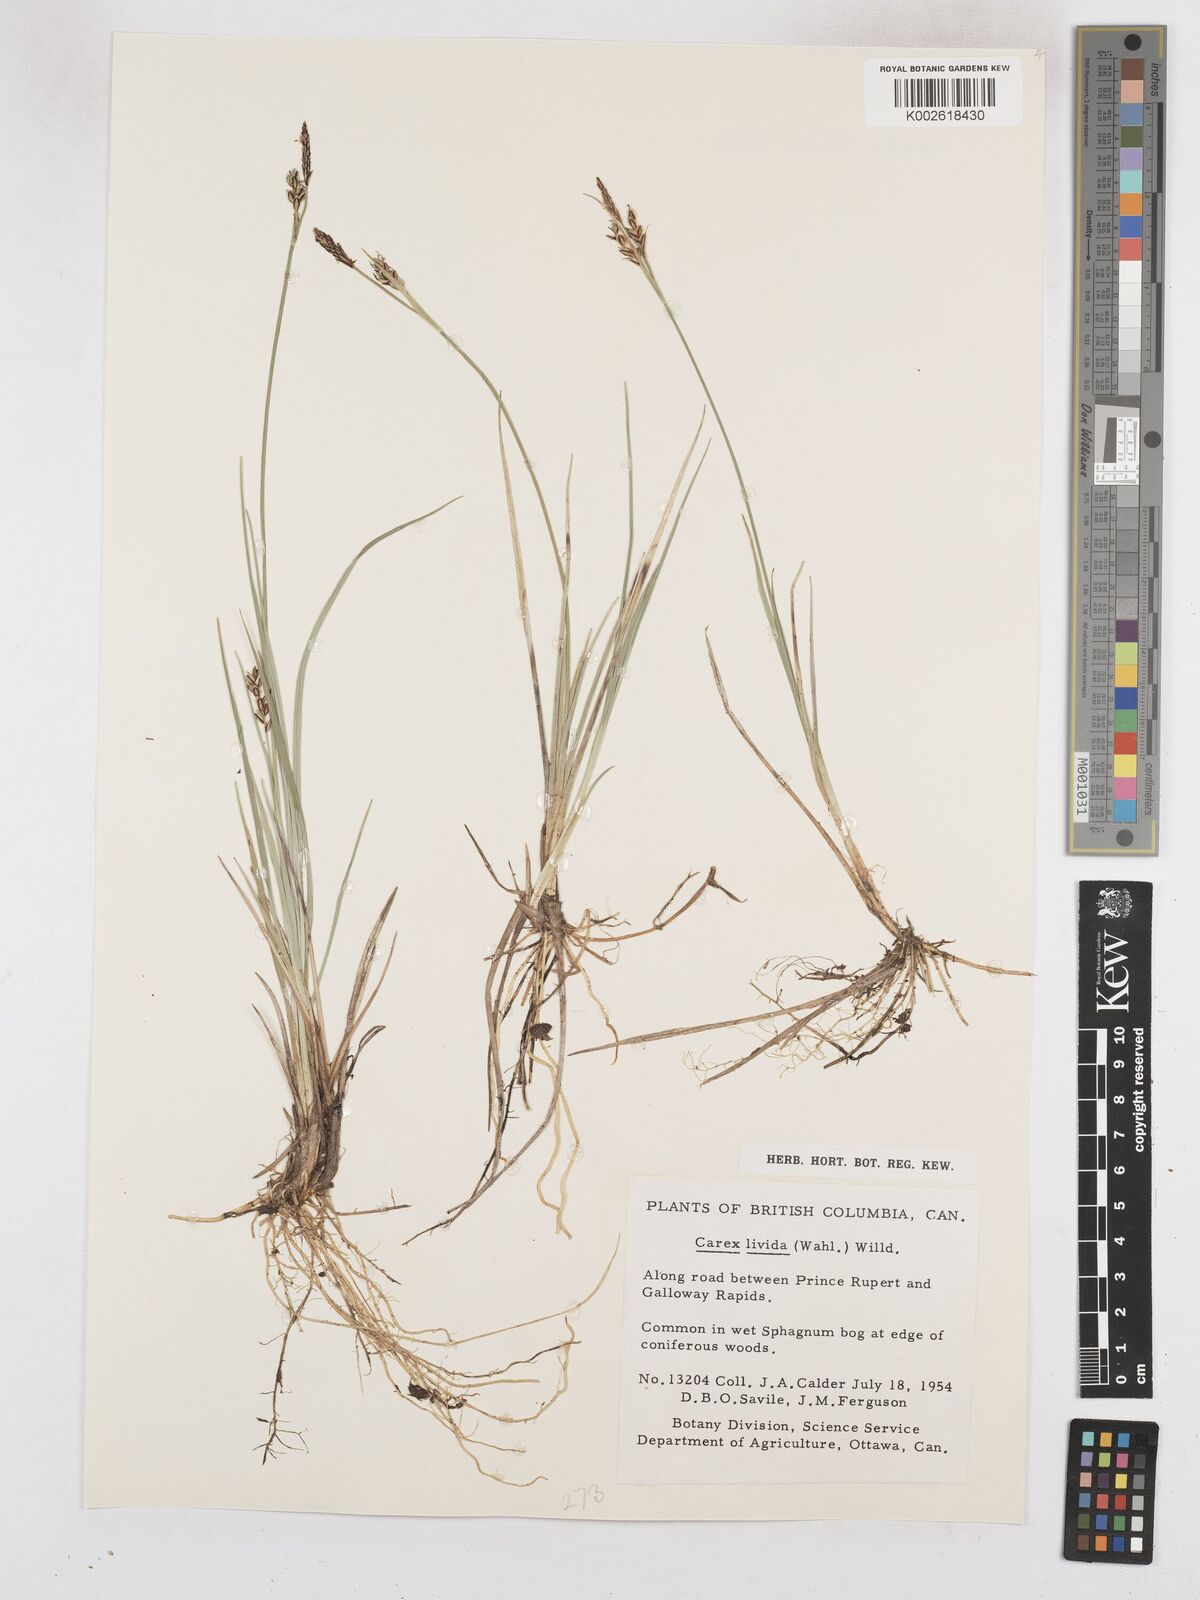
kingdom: Plantae
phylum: Tracheophyta
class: Liliopsida
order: Poales
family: Cyperaceae
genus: Carex
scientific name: Carex livida
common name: Livid sedge
